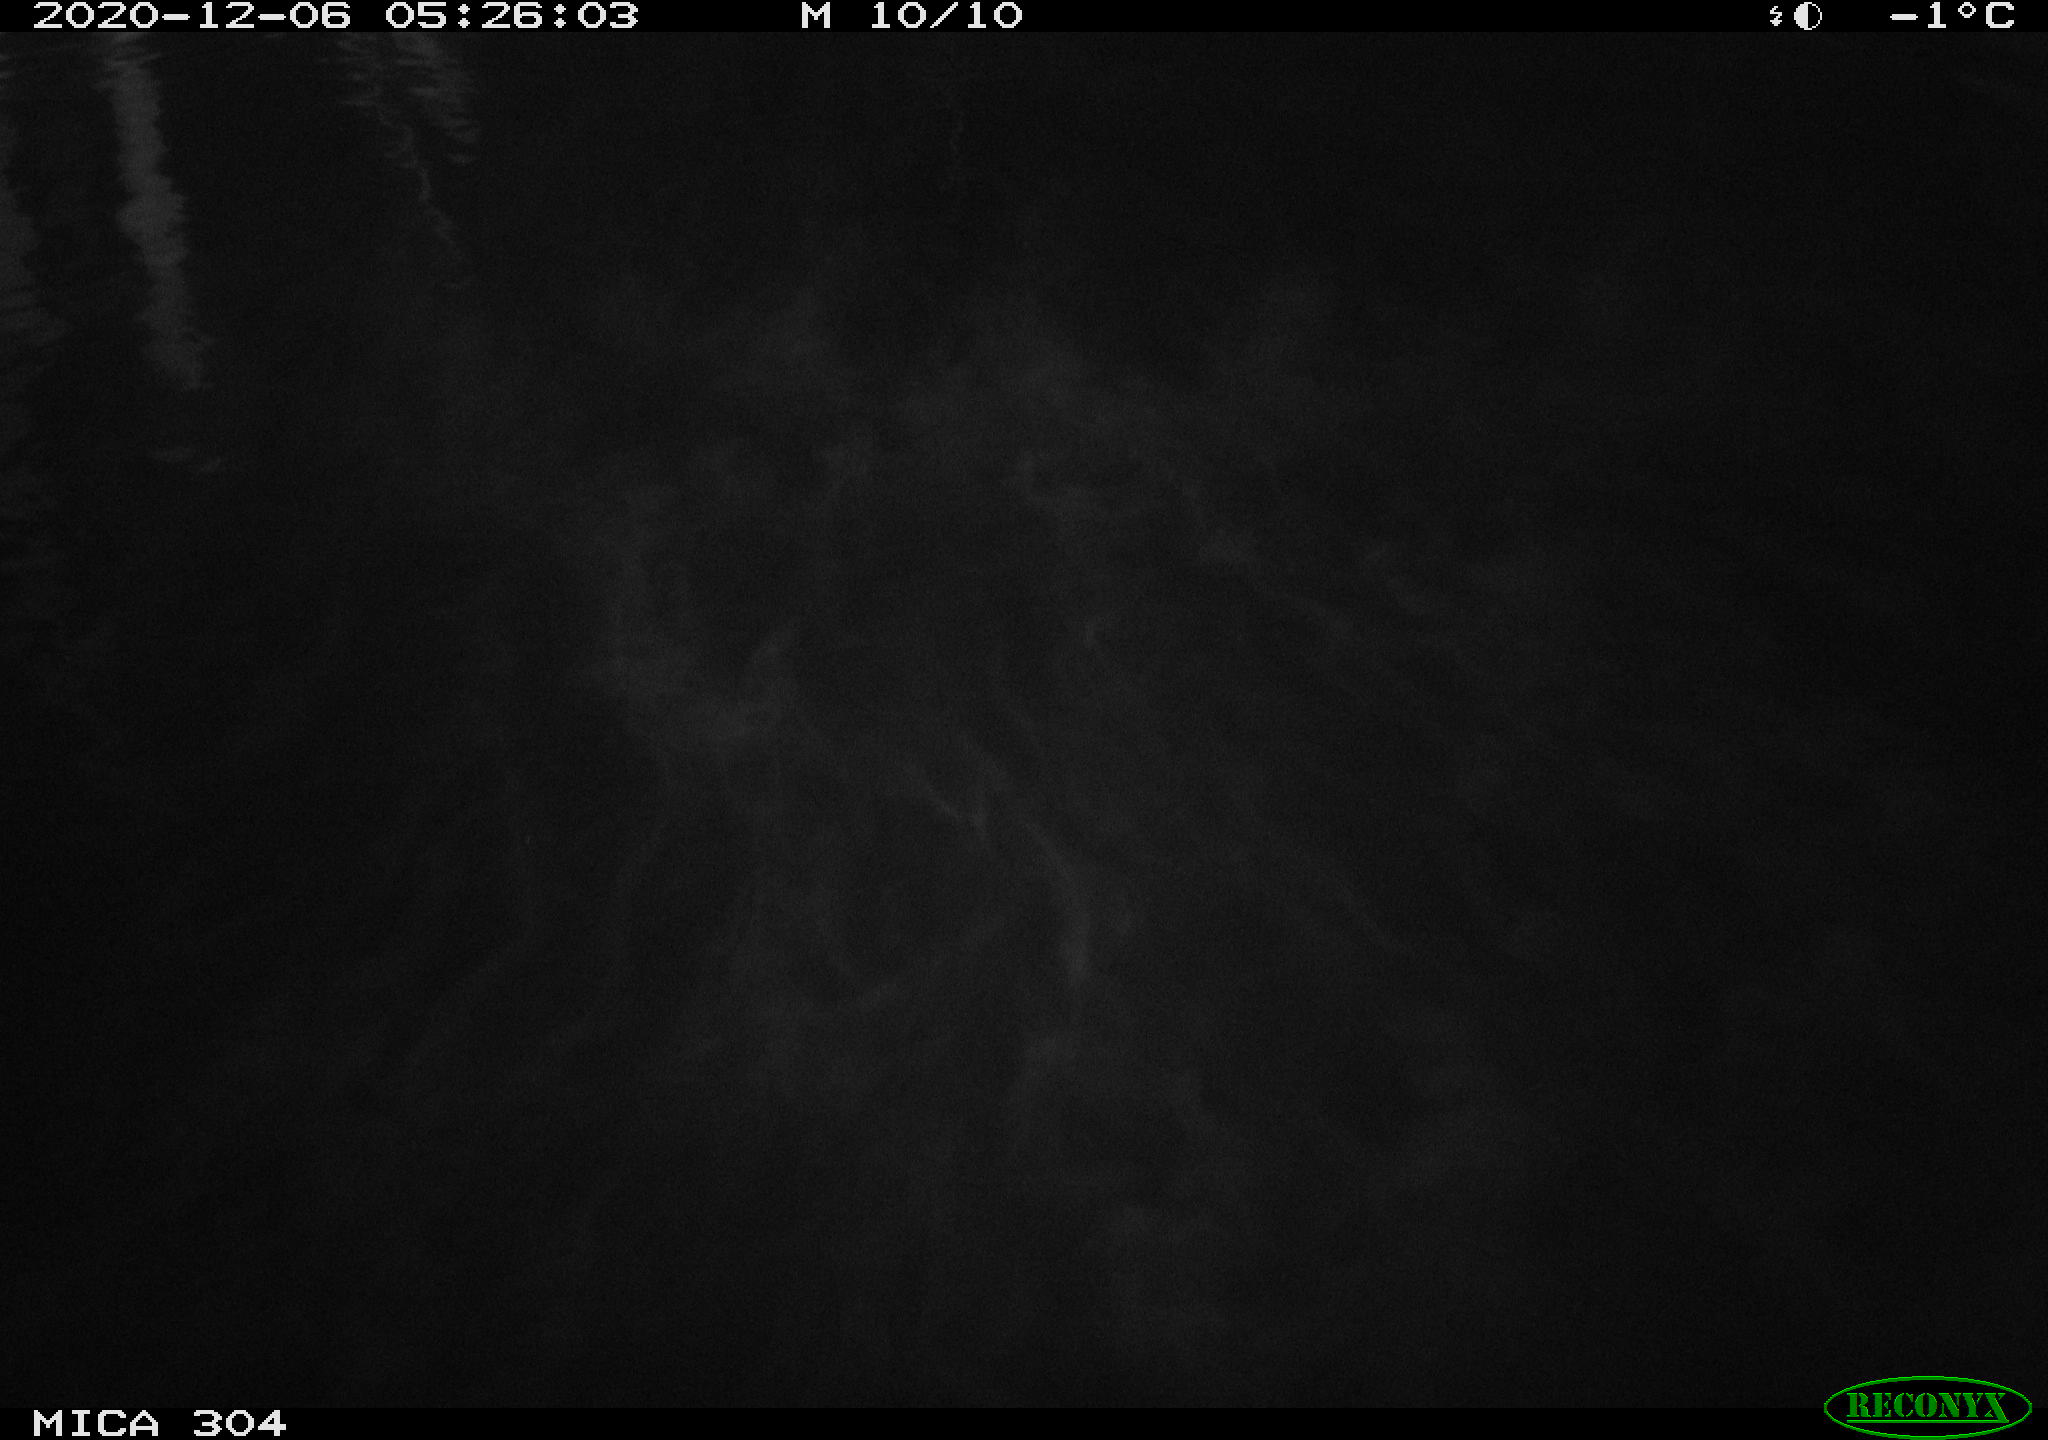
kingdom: Animalia
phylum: Chordata
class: Mammalia
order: Rodentia
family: Muridae
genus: Rattus
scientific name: Rattus norvegicus
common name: Brown rat
